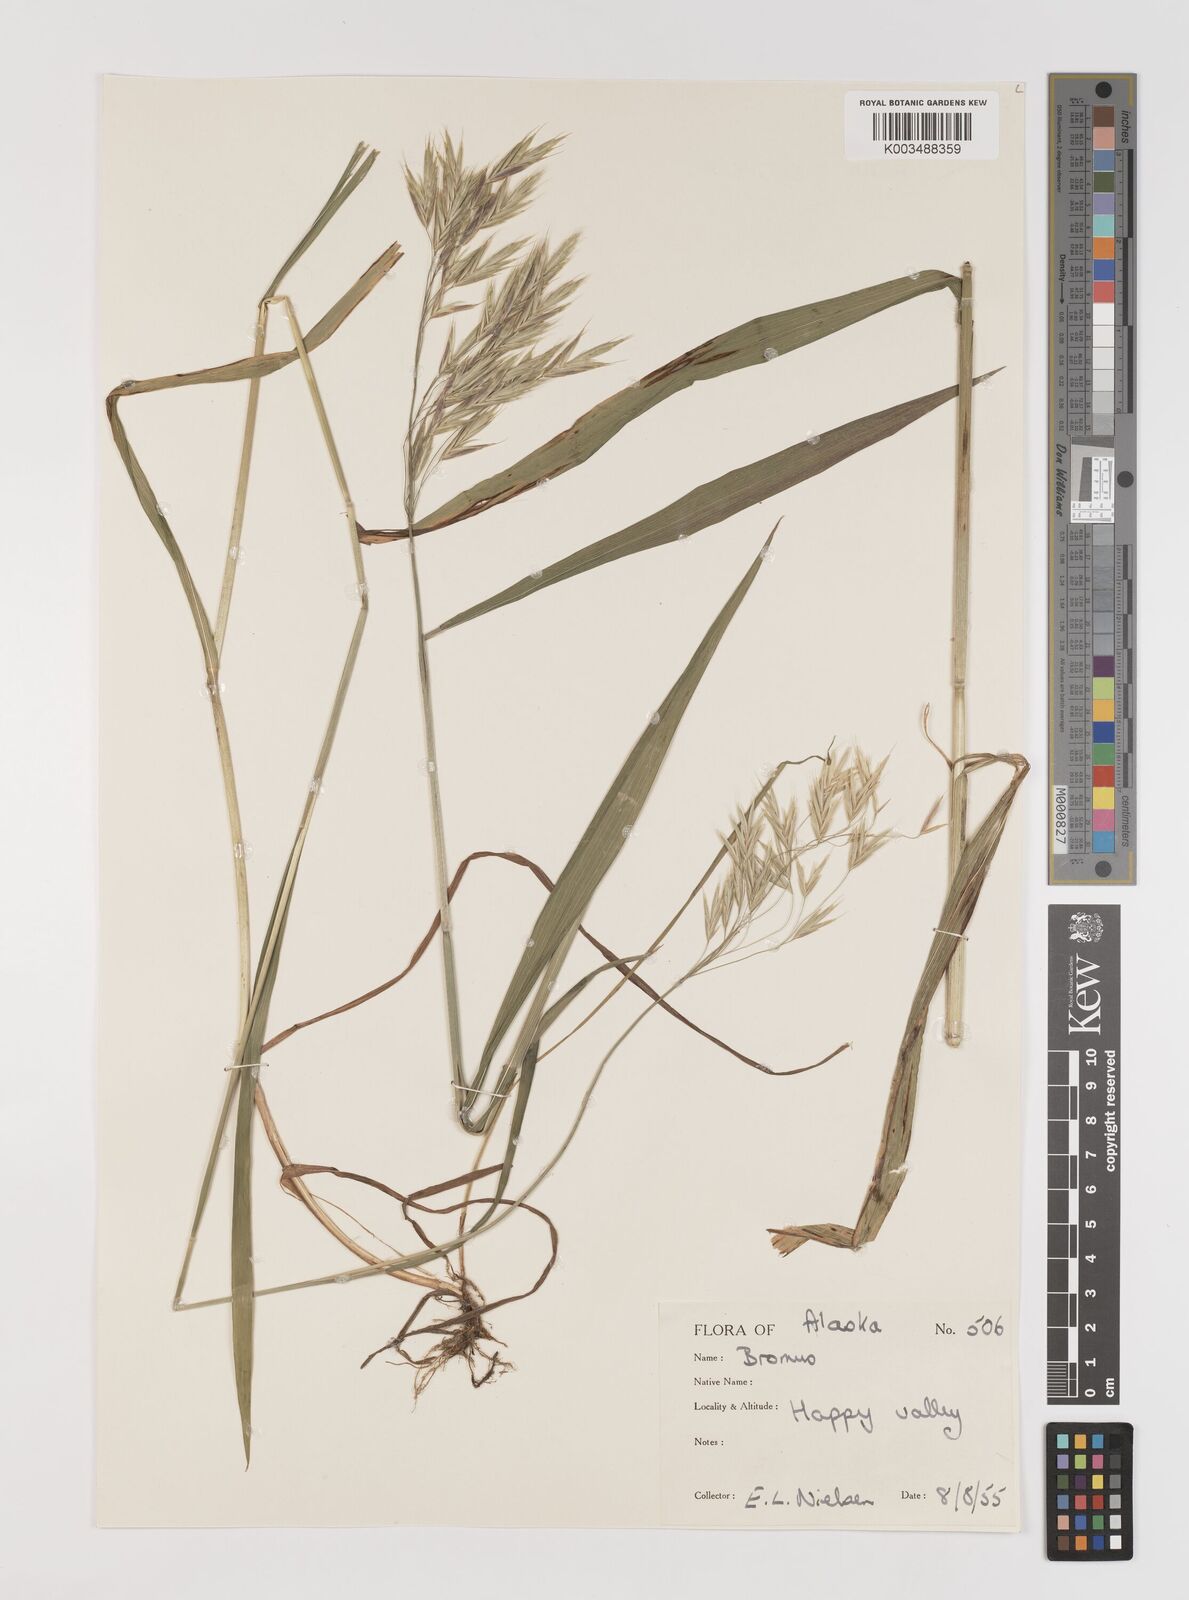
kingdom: Plantae
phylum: Tracheophyta
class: Liliopsida
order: Poales
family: Poaceae
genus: Bromus
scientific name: Bromus ciliatus
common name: Fringe brome
